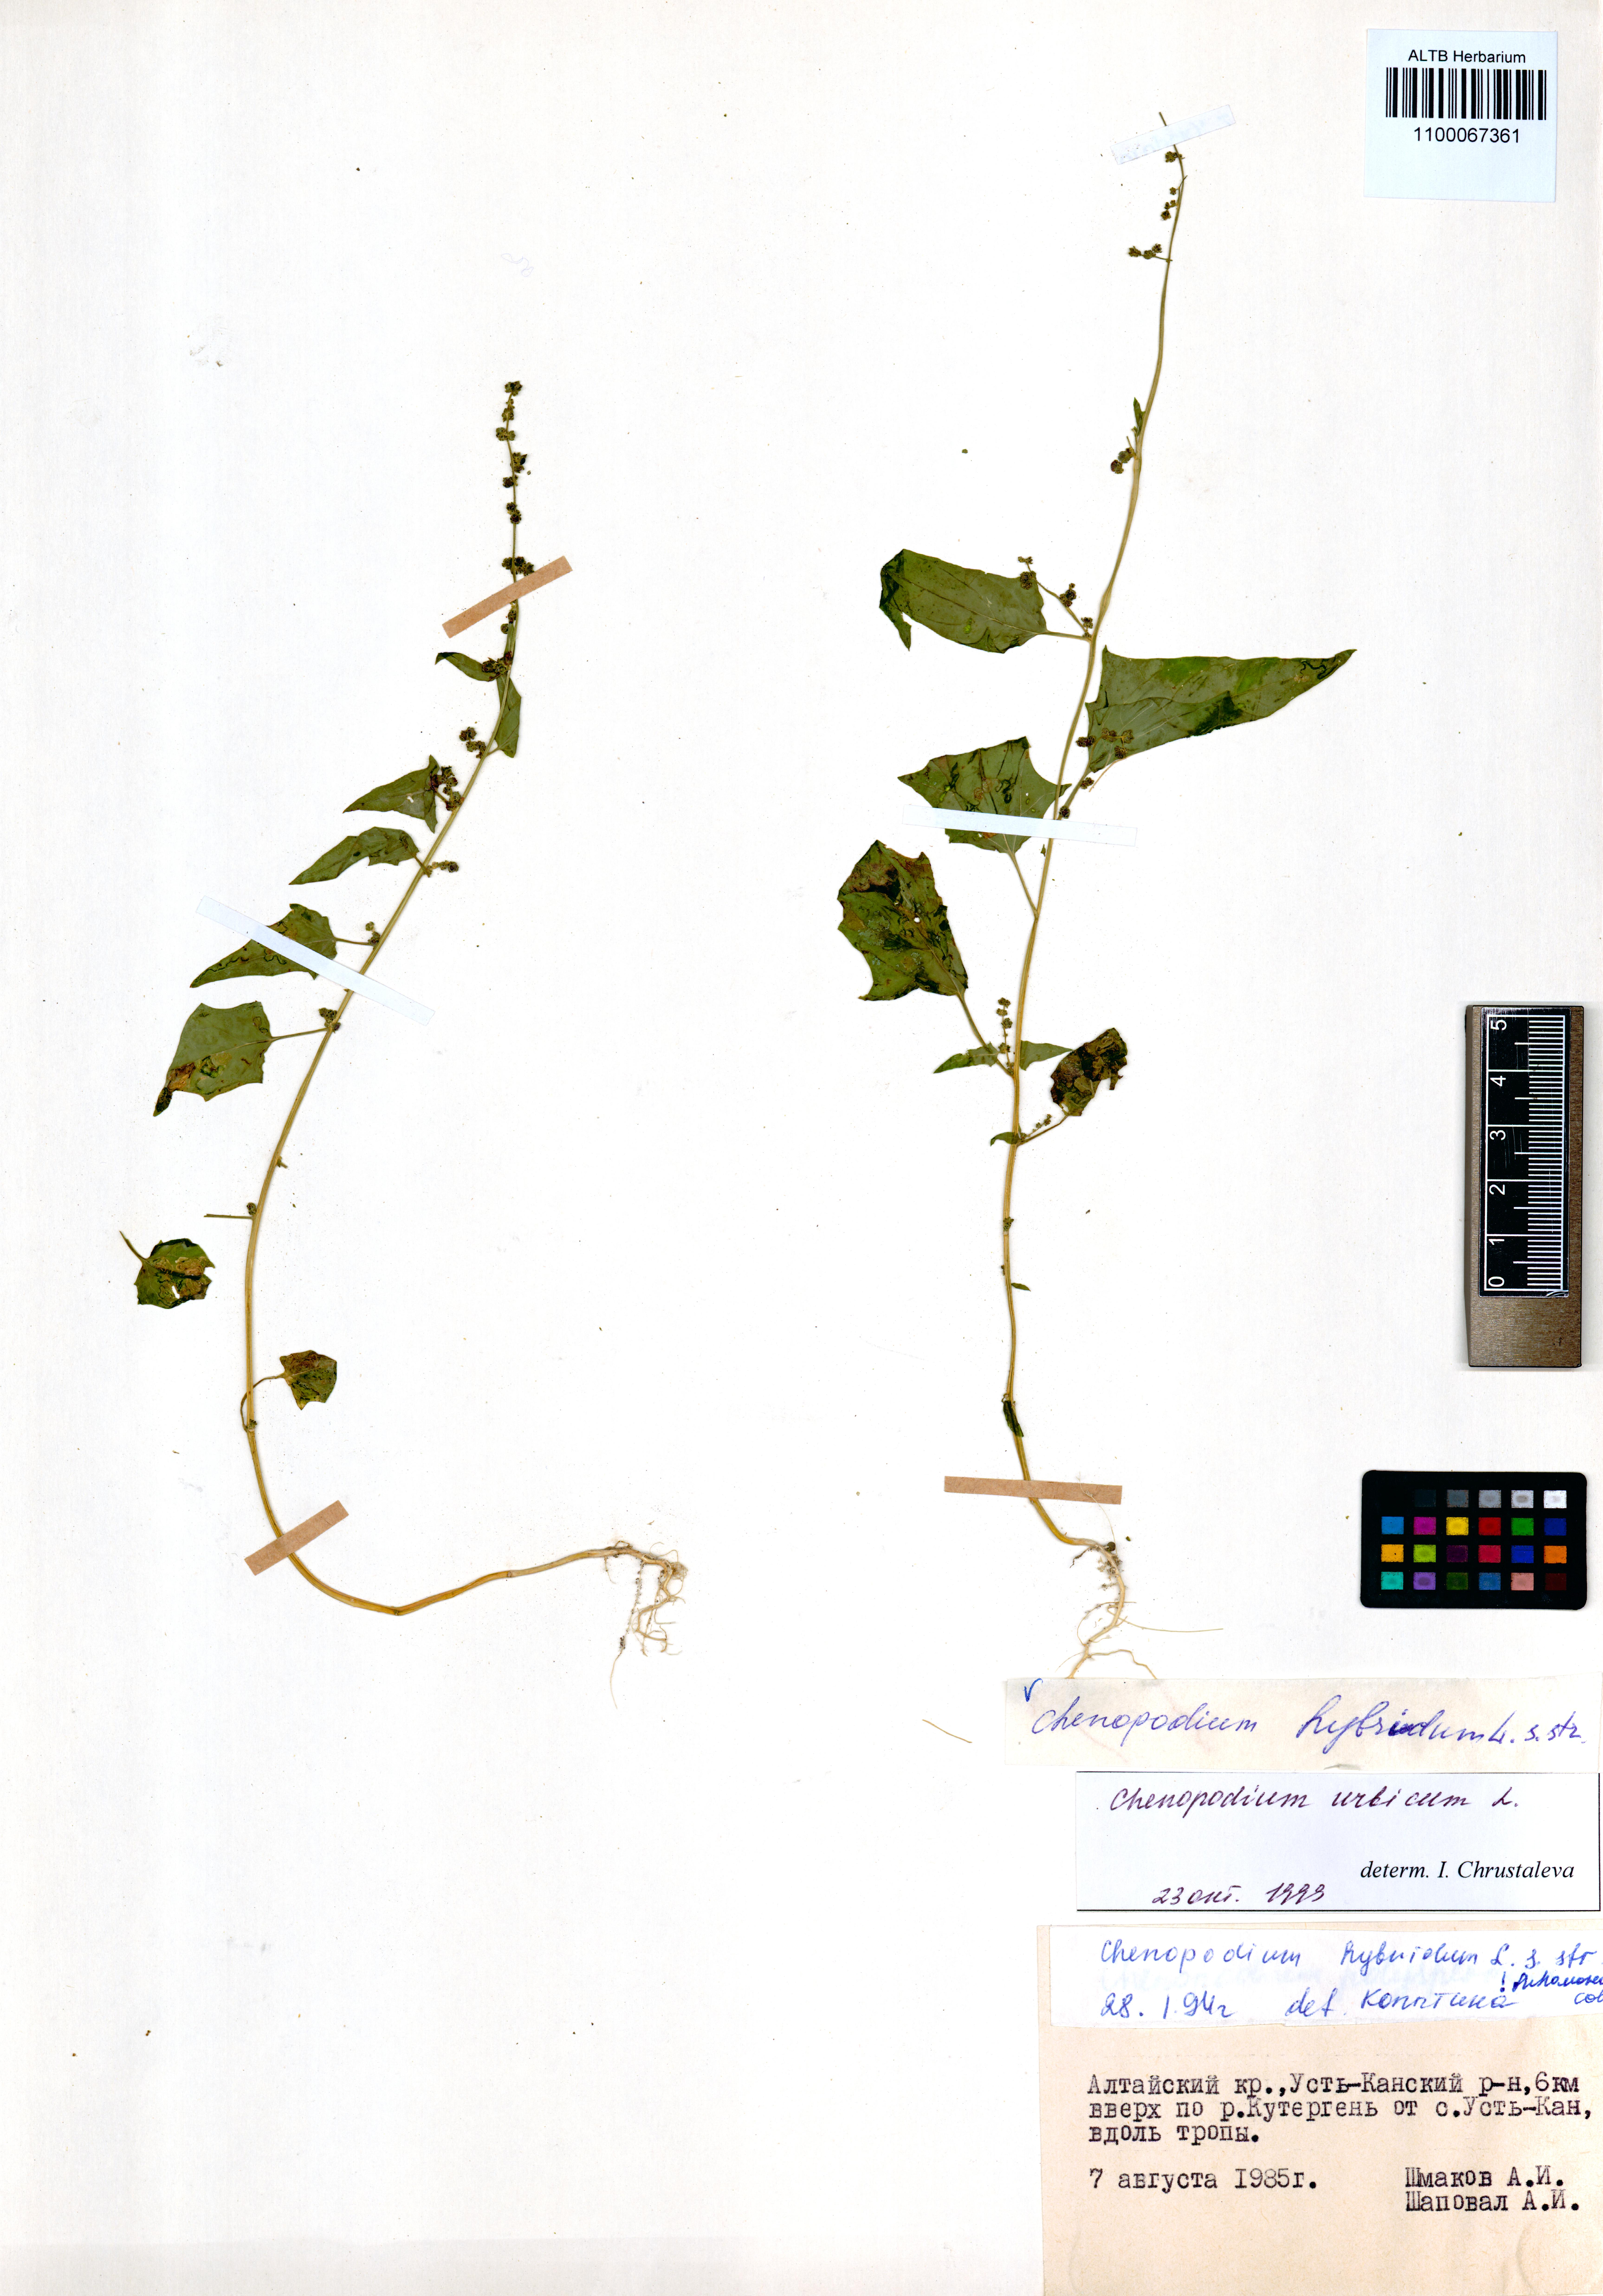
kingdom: Plantae
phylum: Tracheophyta
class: Magnoliopsida
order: Caryophyllales
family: Amaranthaceae
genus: Chenopodiastrum
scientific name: Chenopodiastrum hybridum
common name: Mapleleaf goosefoot
